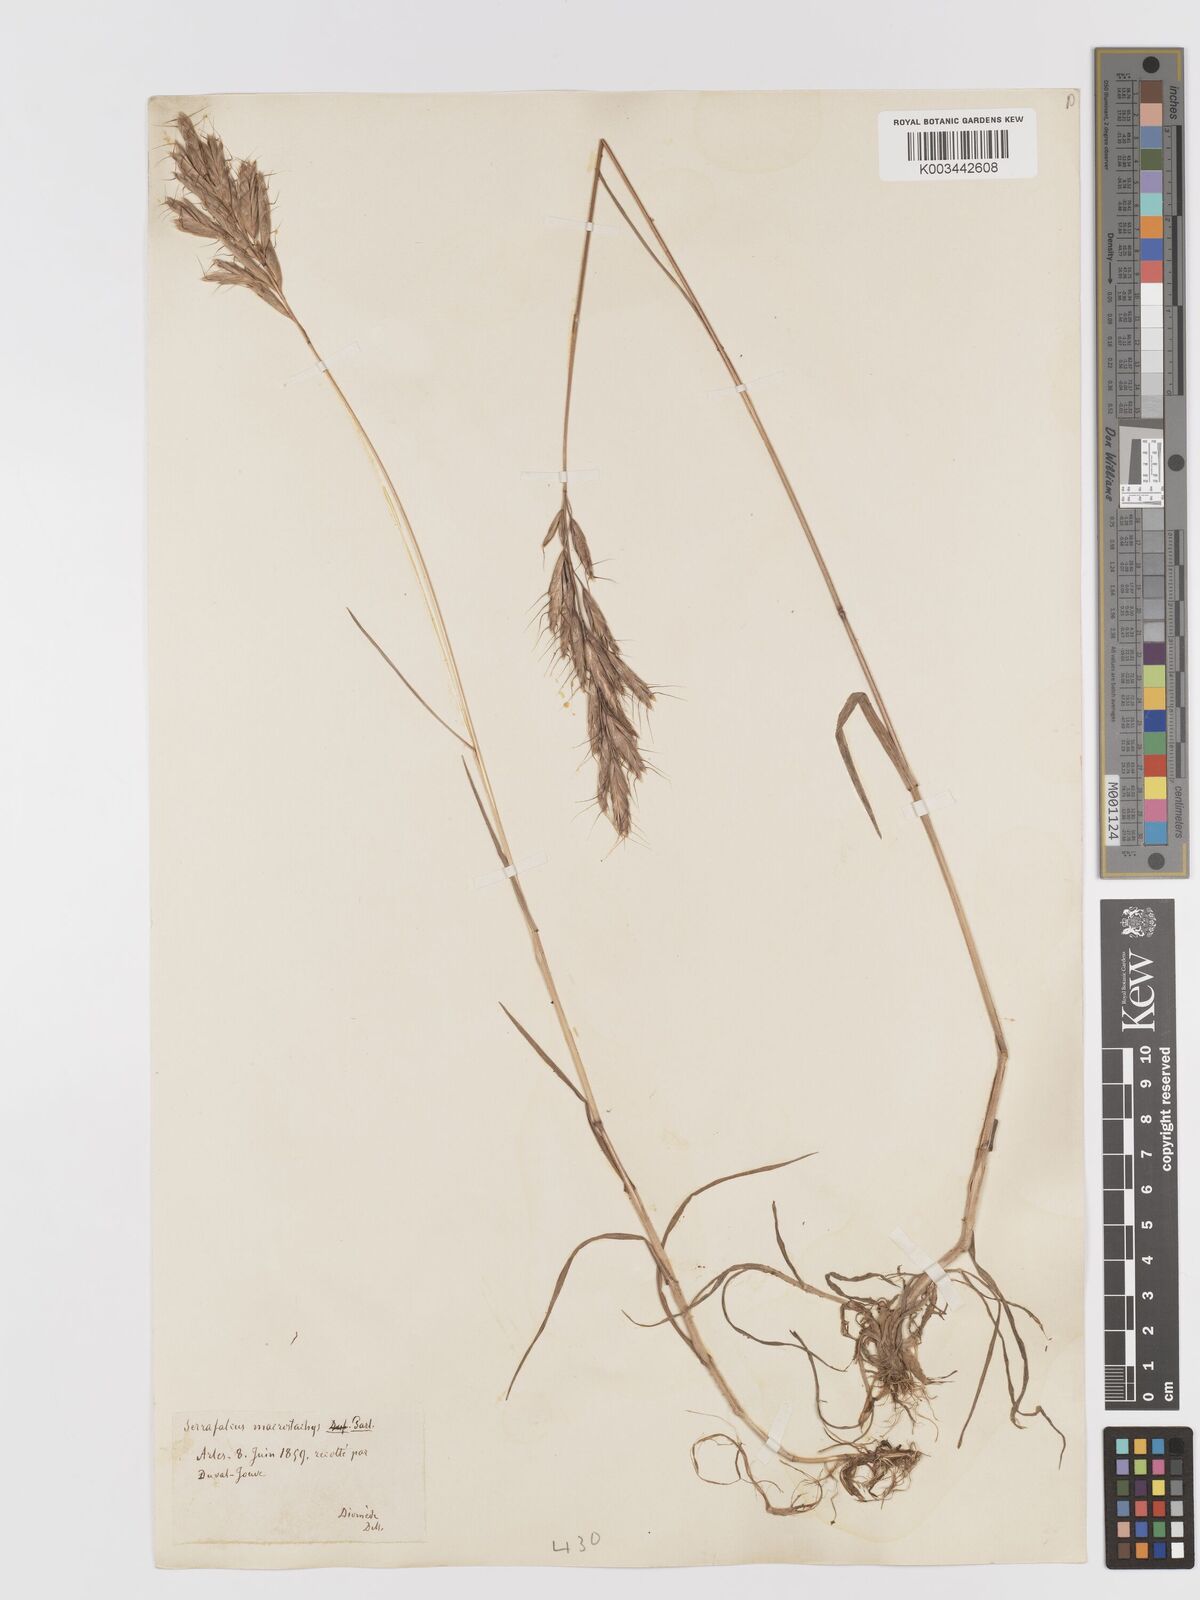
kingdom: Plantae
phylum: Tracheophyta
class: Liliopsida
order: Poales
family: Poaceae
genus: Bromus
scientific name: Bromus lanceolatus
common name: Mediterranean brome
